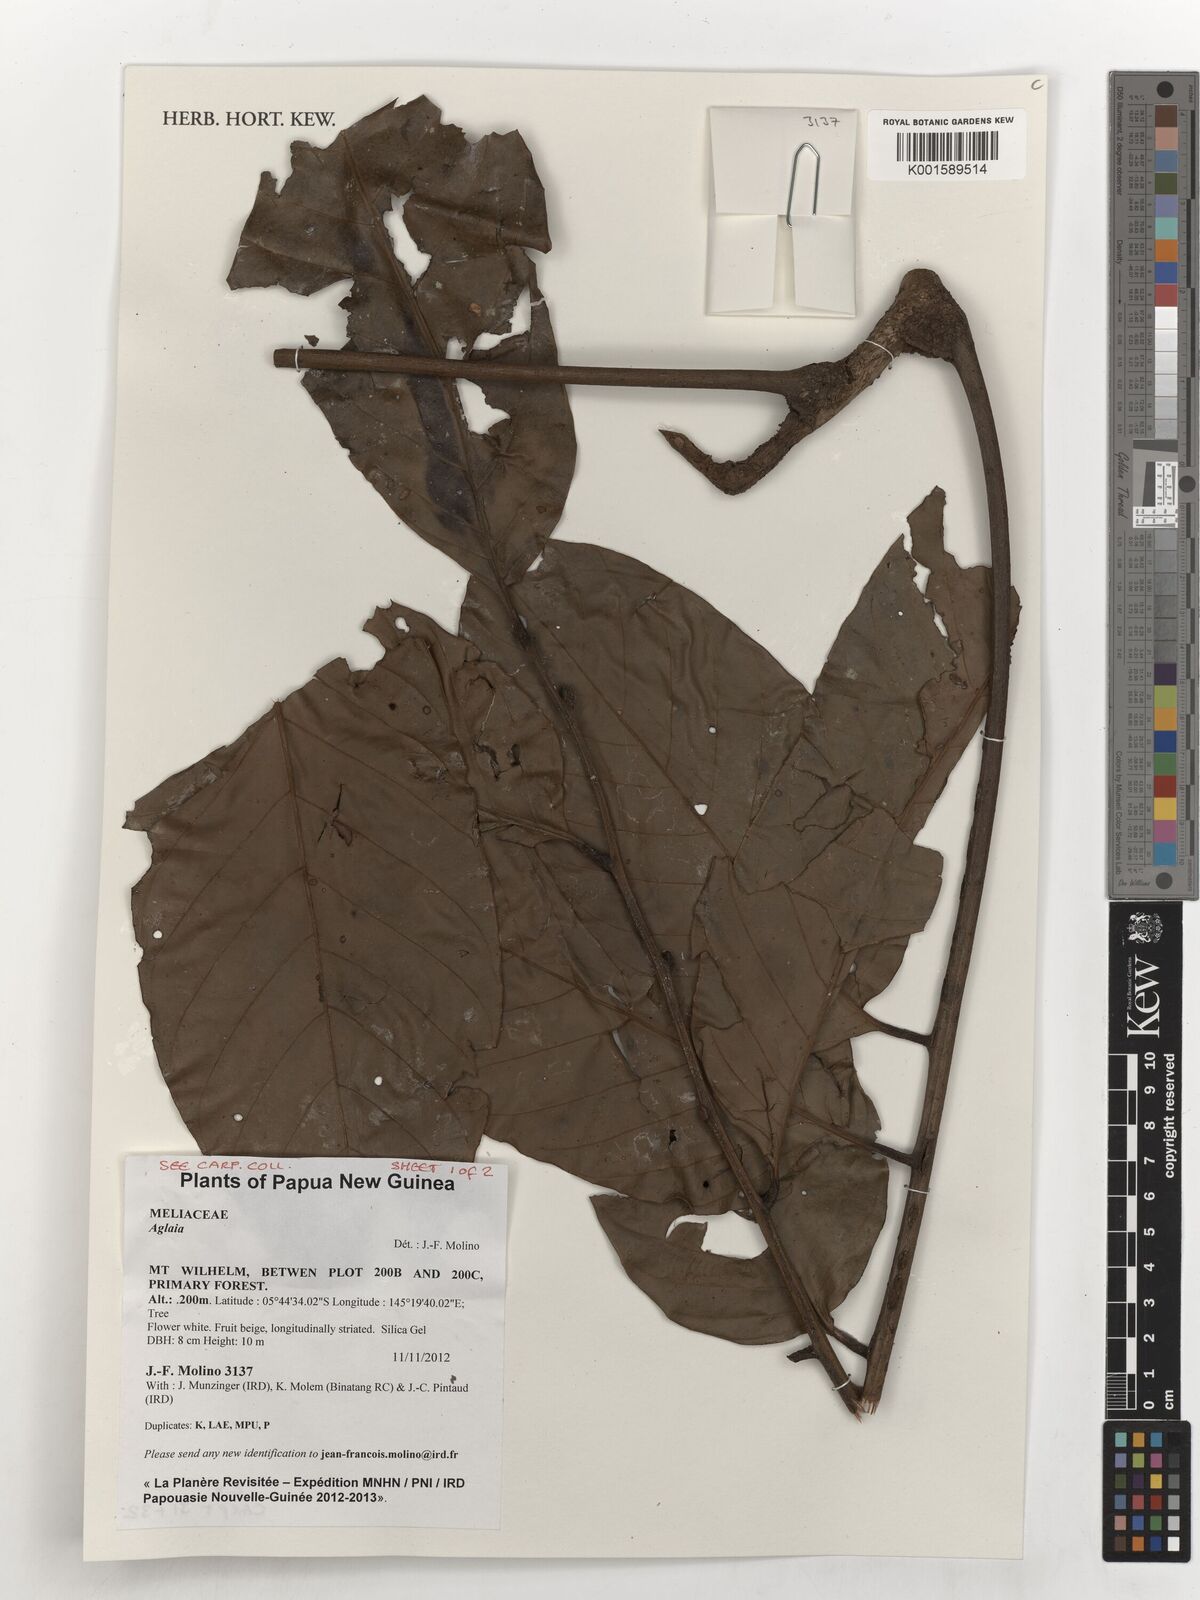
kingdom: Plantae
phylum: Tracheophyta
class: Magnoliopsida
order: Sapindales
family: Meliaceae
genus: Aglaia
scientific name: Aglaia
